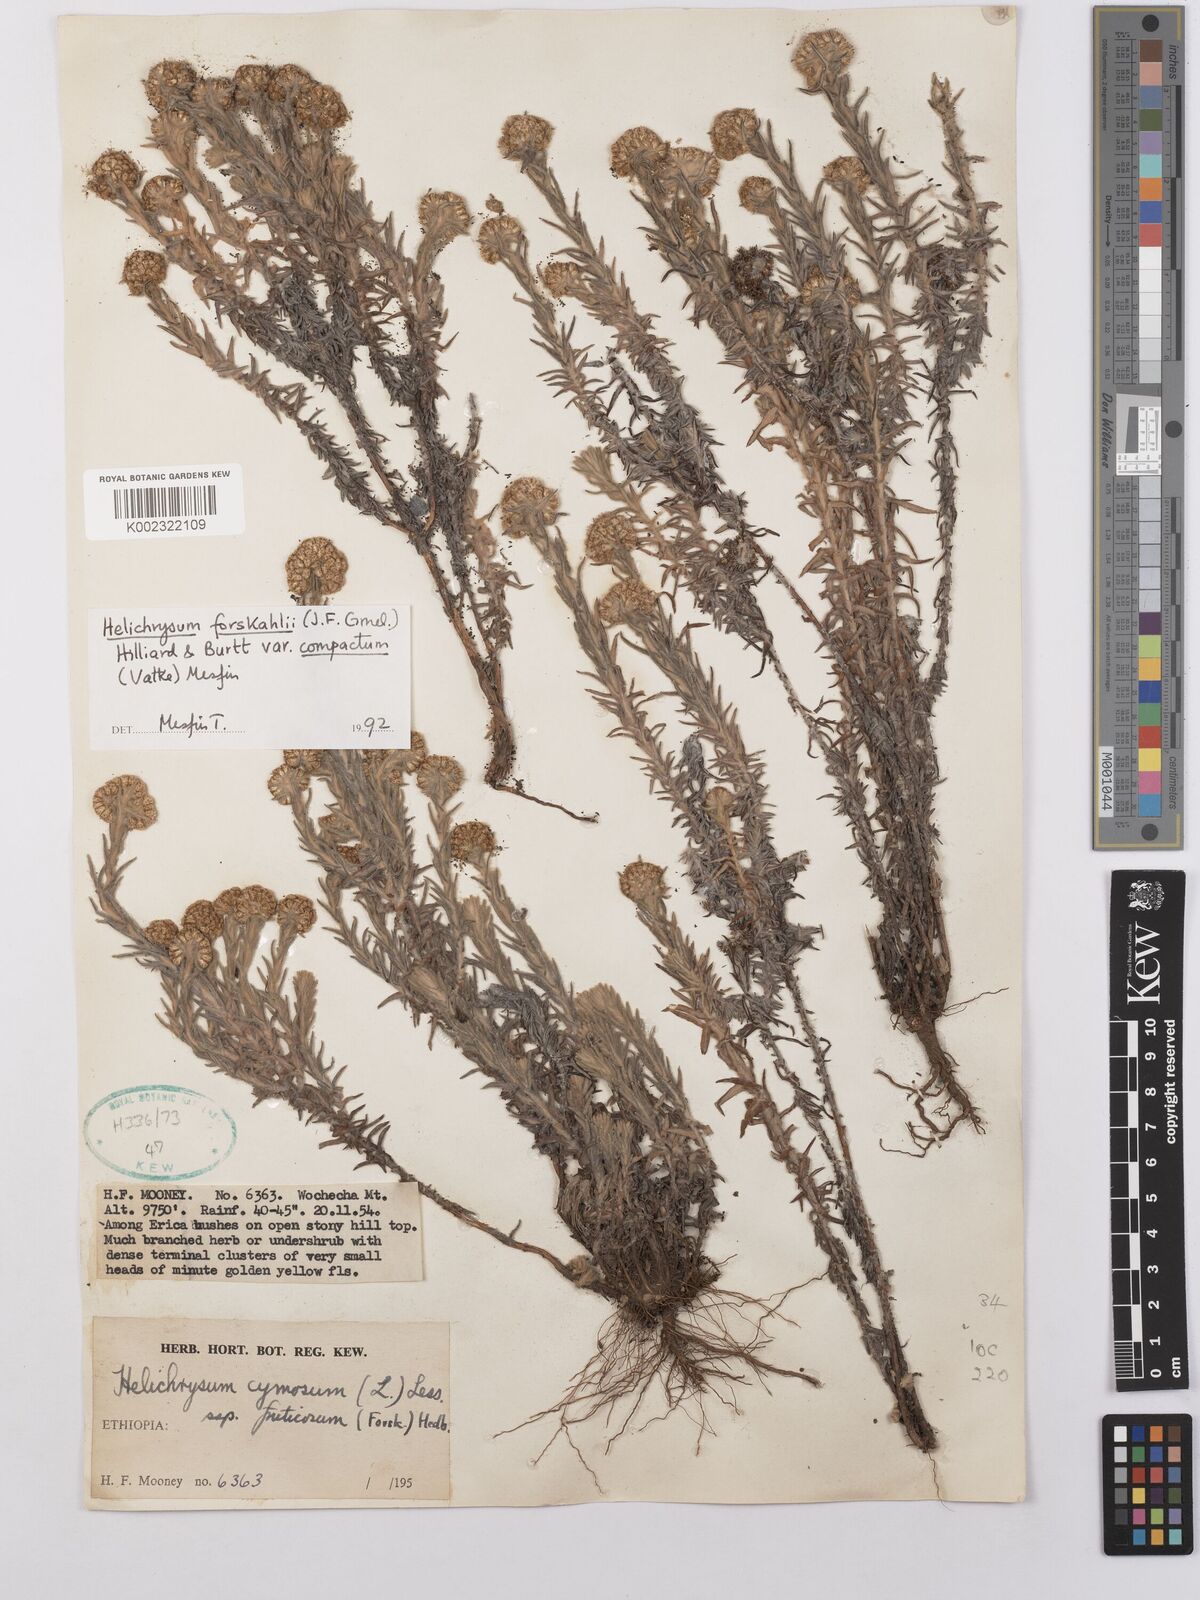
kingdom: Plantae
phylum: Tracheophyta
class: Magnoliopsida
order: Asterales
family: Asteraceae
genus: Helichrysum
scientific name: Helichrysum forskahlii
